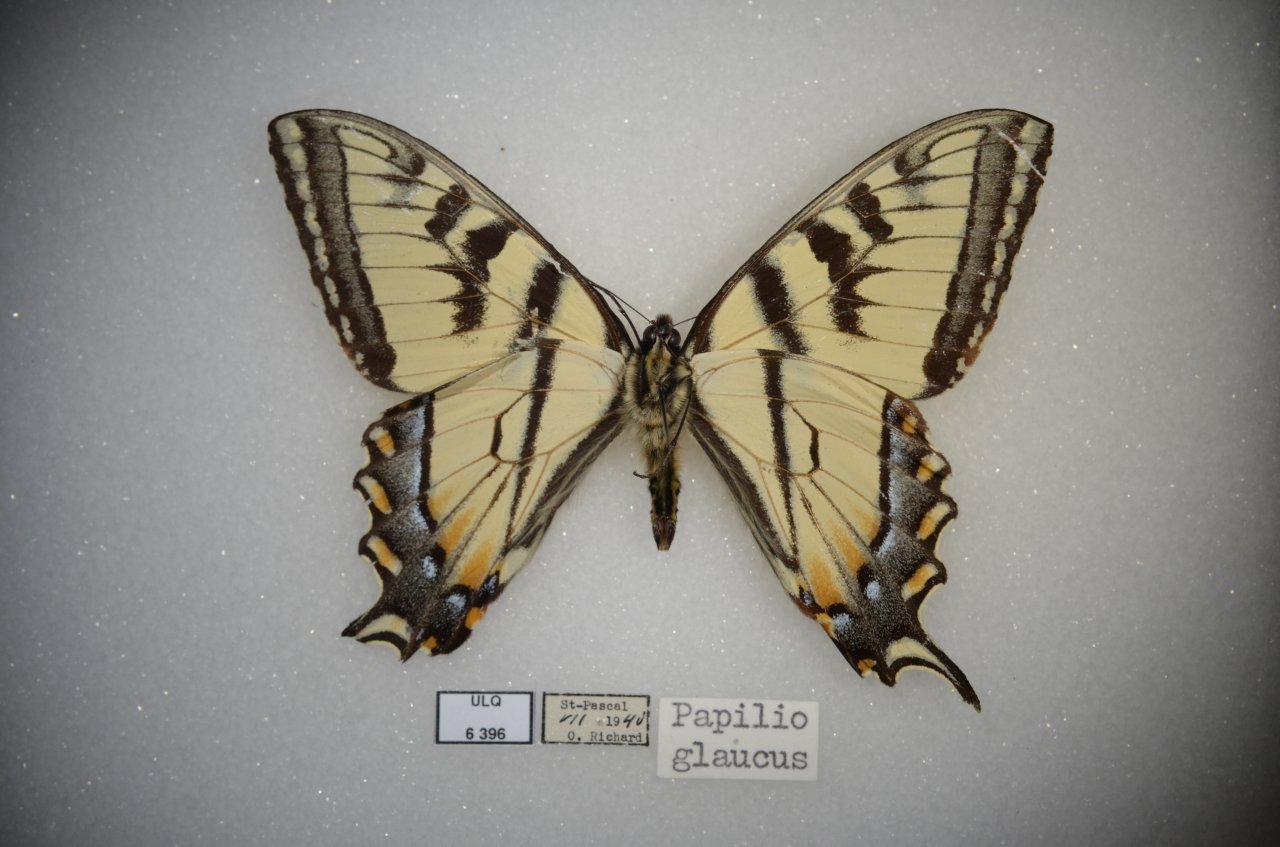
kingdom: Animalia
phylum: Arthropoda
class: Insecta
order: Lepidoptera
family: Papilionidae
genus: Pterourus
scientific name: Pterourus canadensis
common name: Canadian Tiger Swallowtail
